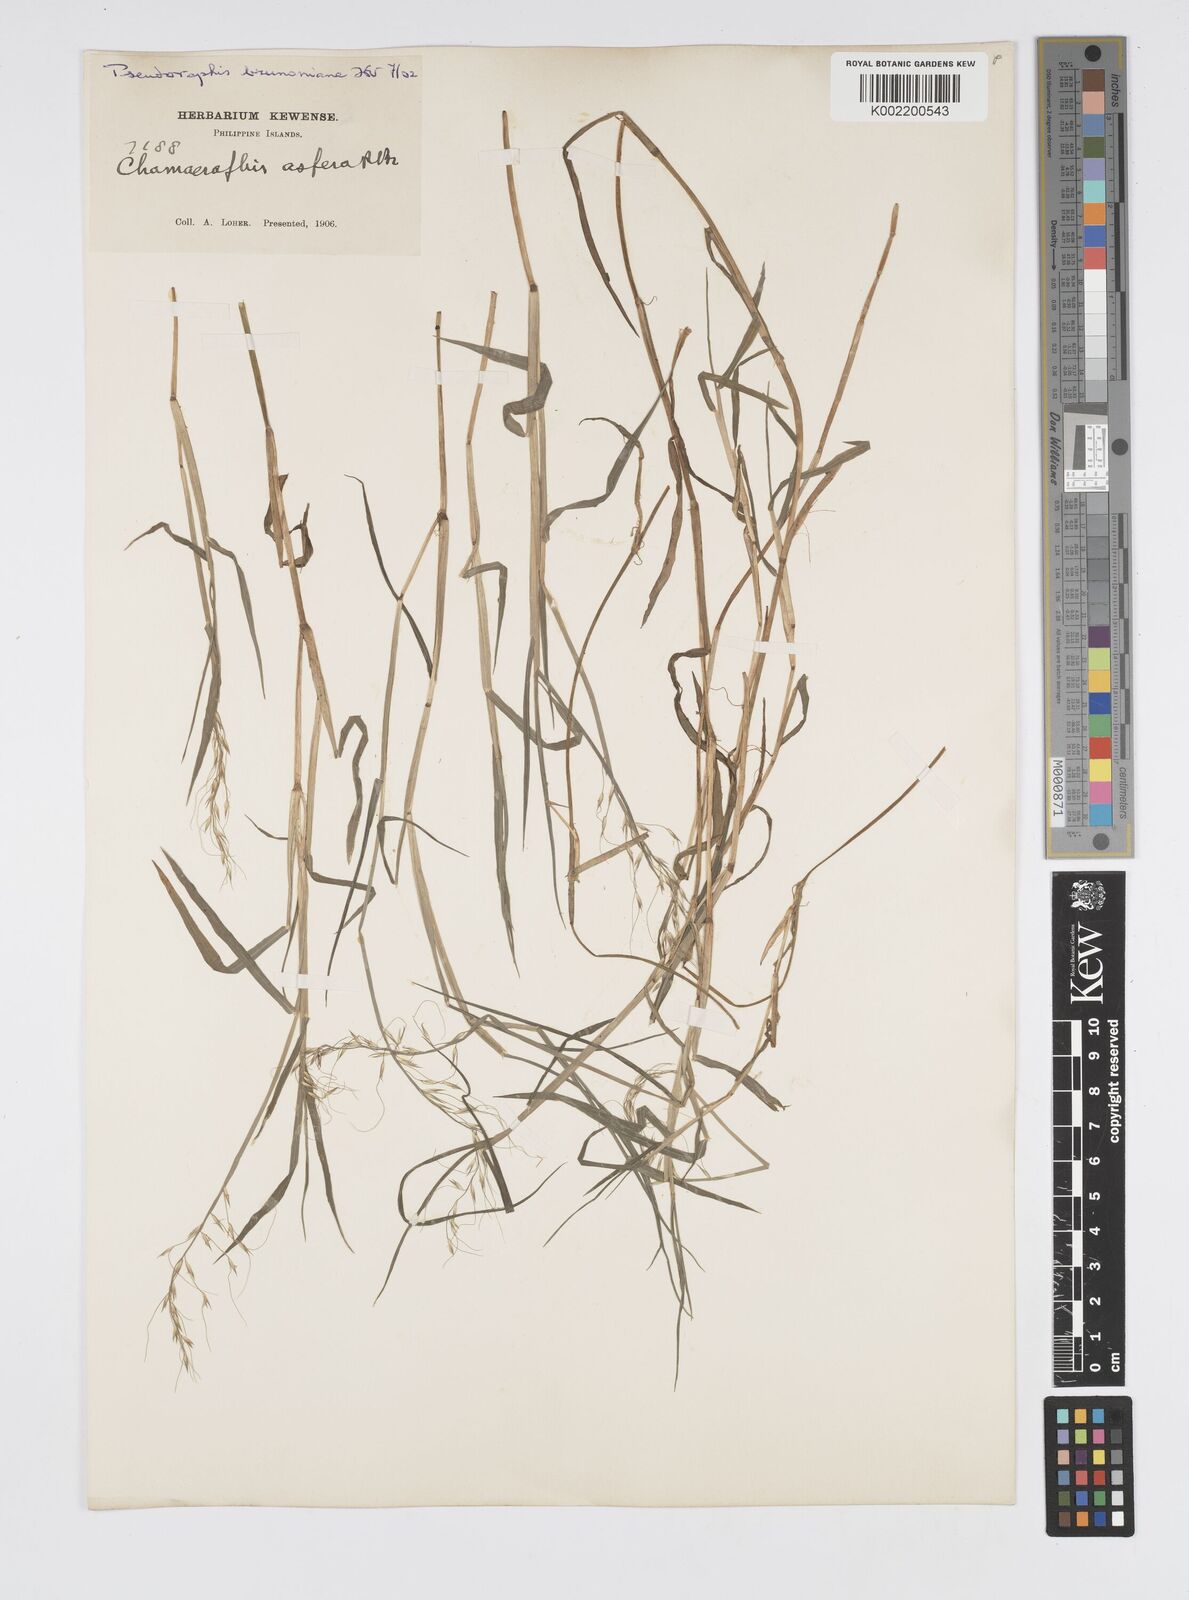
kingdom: Plantae
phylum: Tracheophyta
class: Liliopsida
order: Poales
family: Poaceae
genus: Pseudoraphis
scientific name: Pseudoraphis brunoniana
